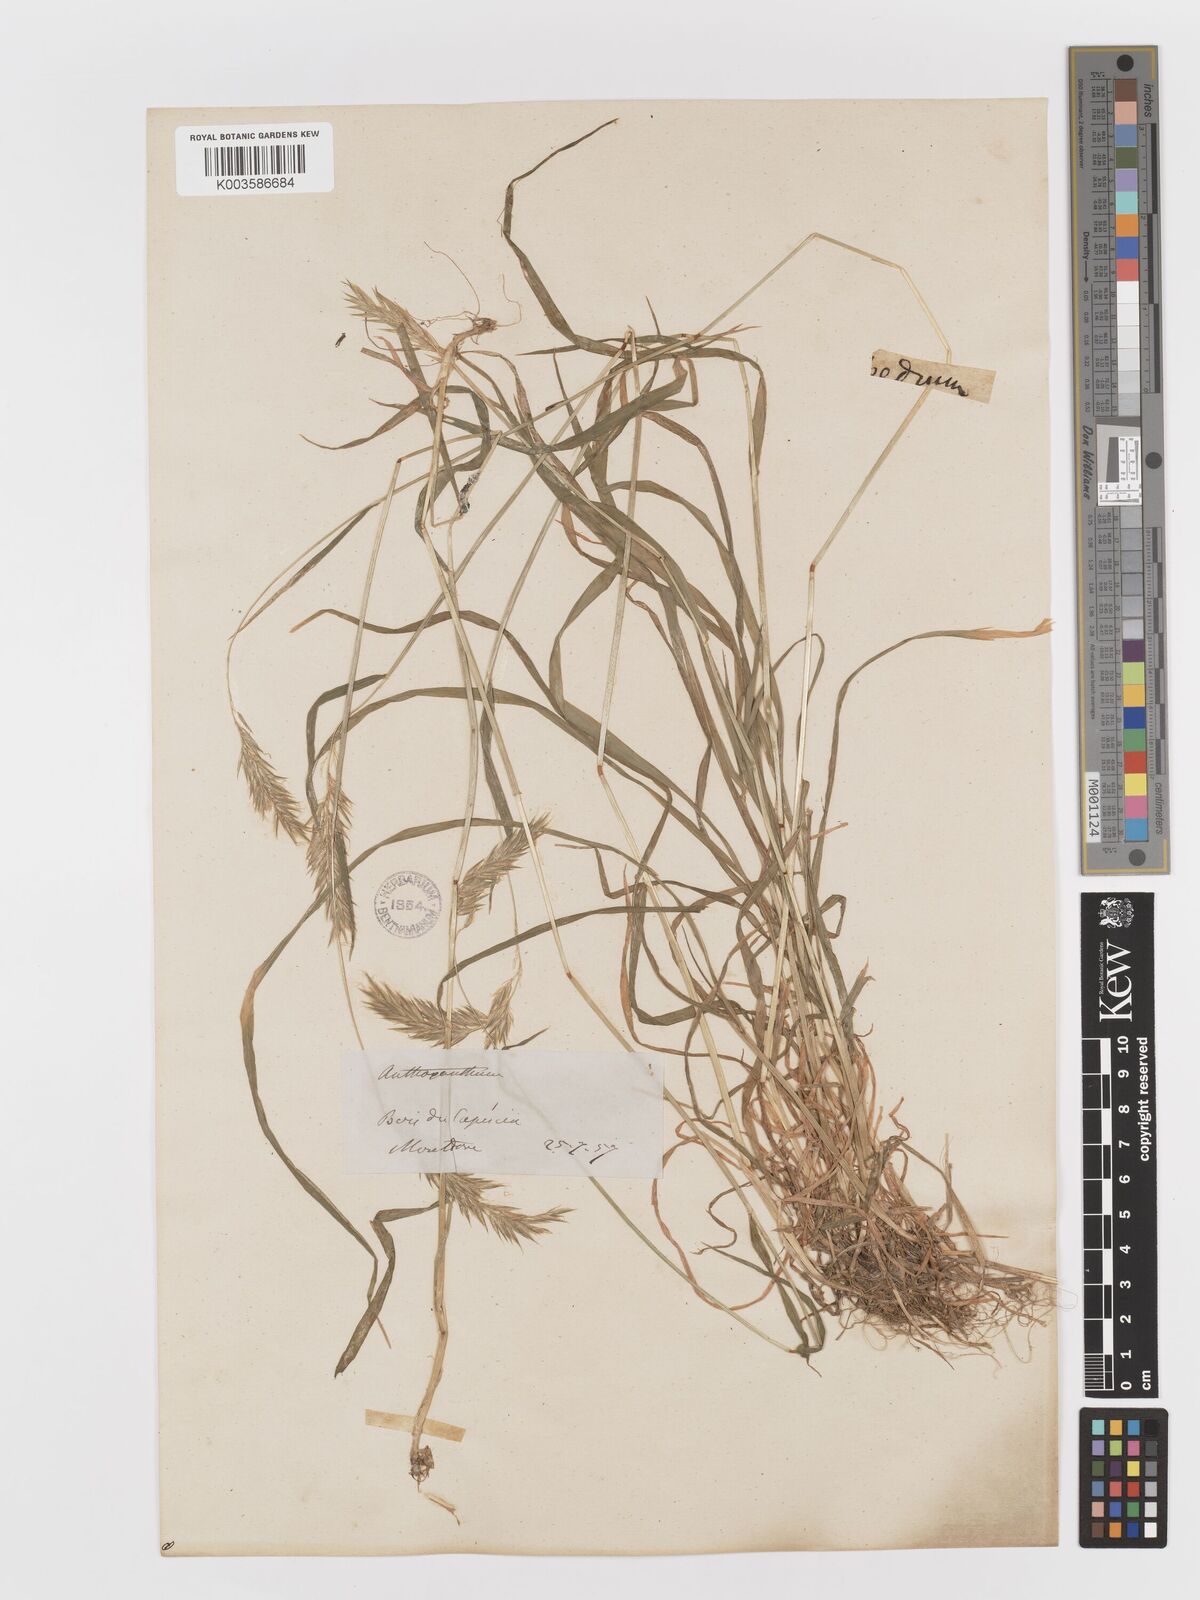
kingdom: Plantae
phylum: Tracheophyta
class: Liliopsida
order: Poales
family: Poaceae
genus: Anthoxanthum
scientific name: Anthoxanthum odoratum
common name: Sweet vernalgrass
